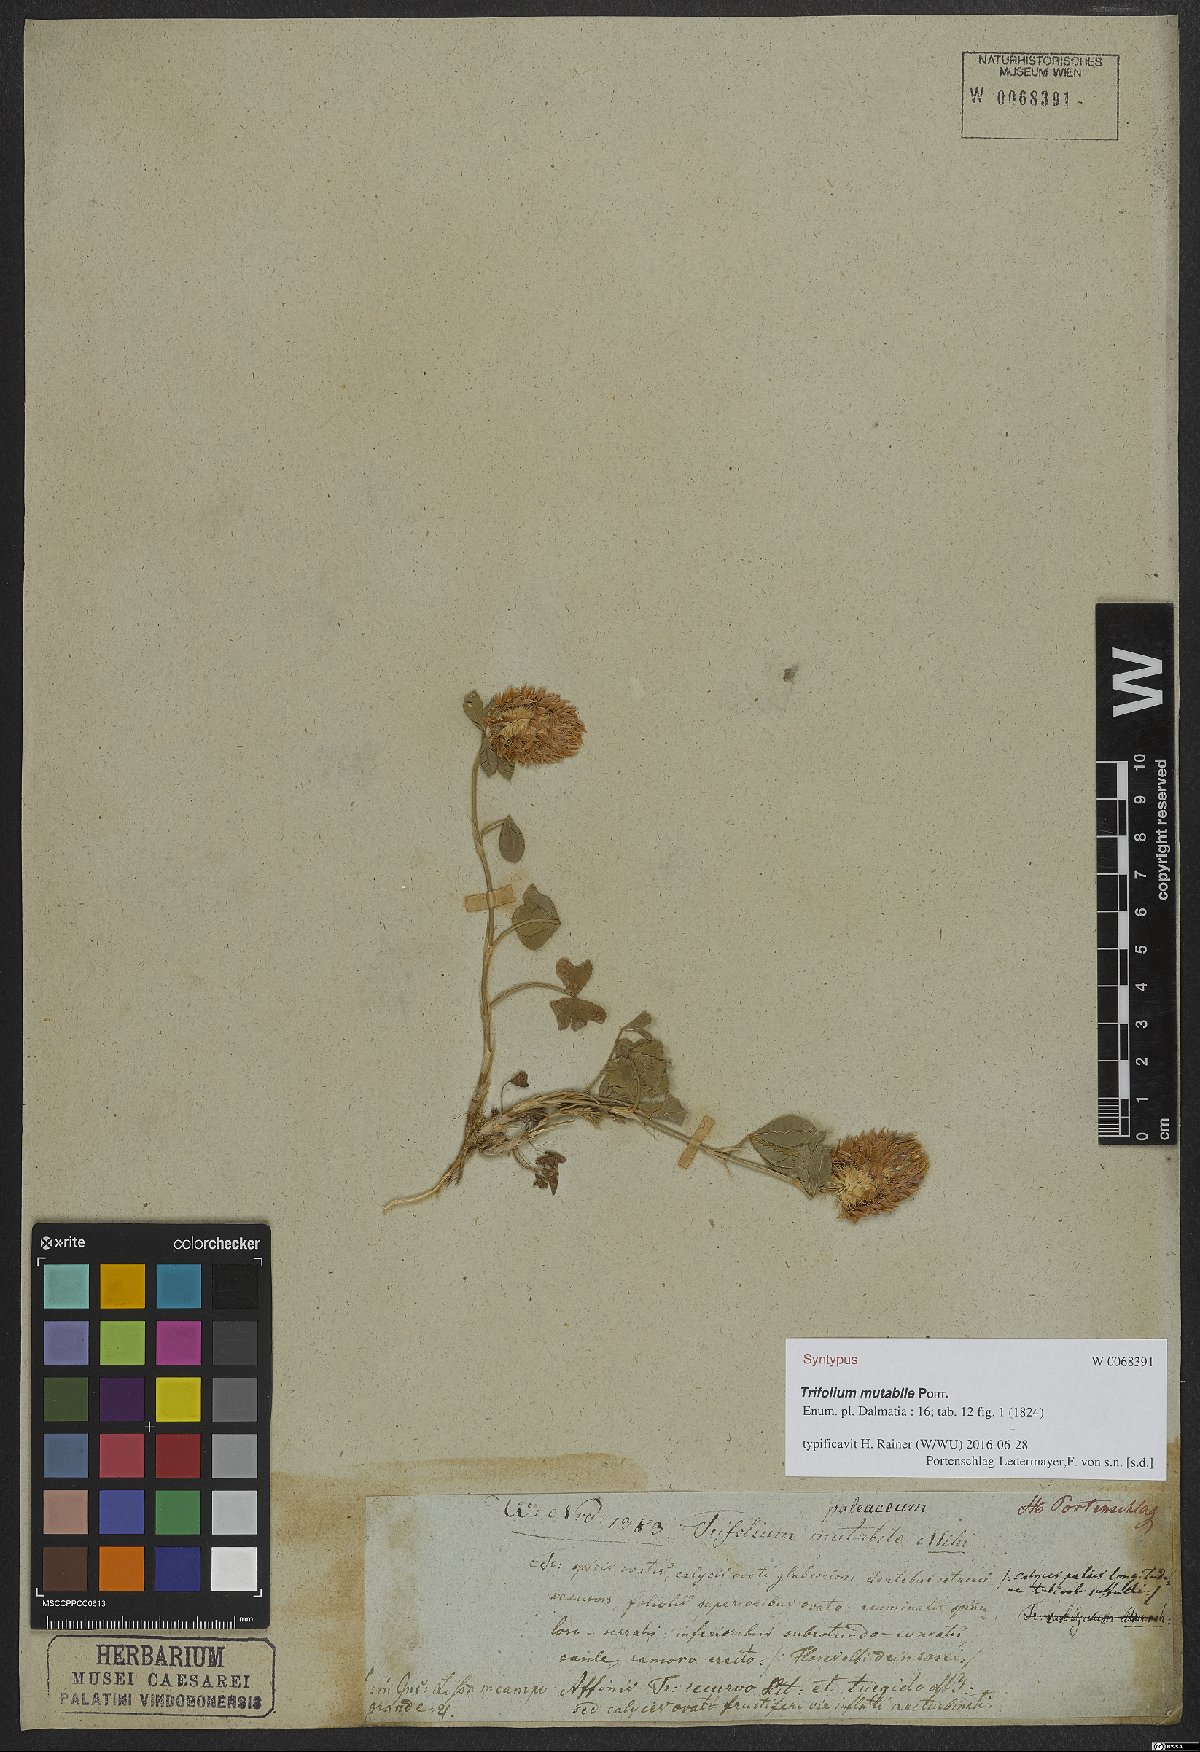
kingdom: Plantae
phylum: Tracheophyta
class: Magnoliopsida
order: Fabales
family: Fabaceae
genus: Trifolium
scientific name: Trifolium mutabile
